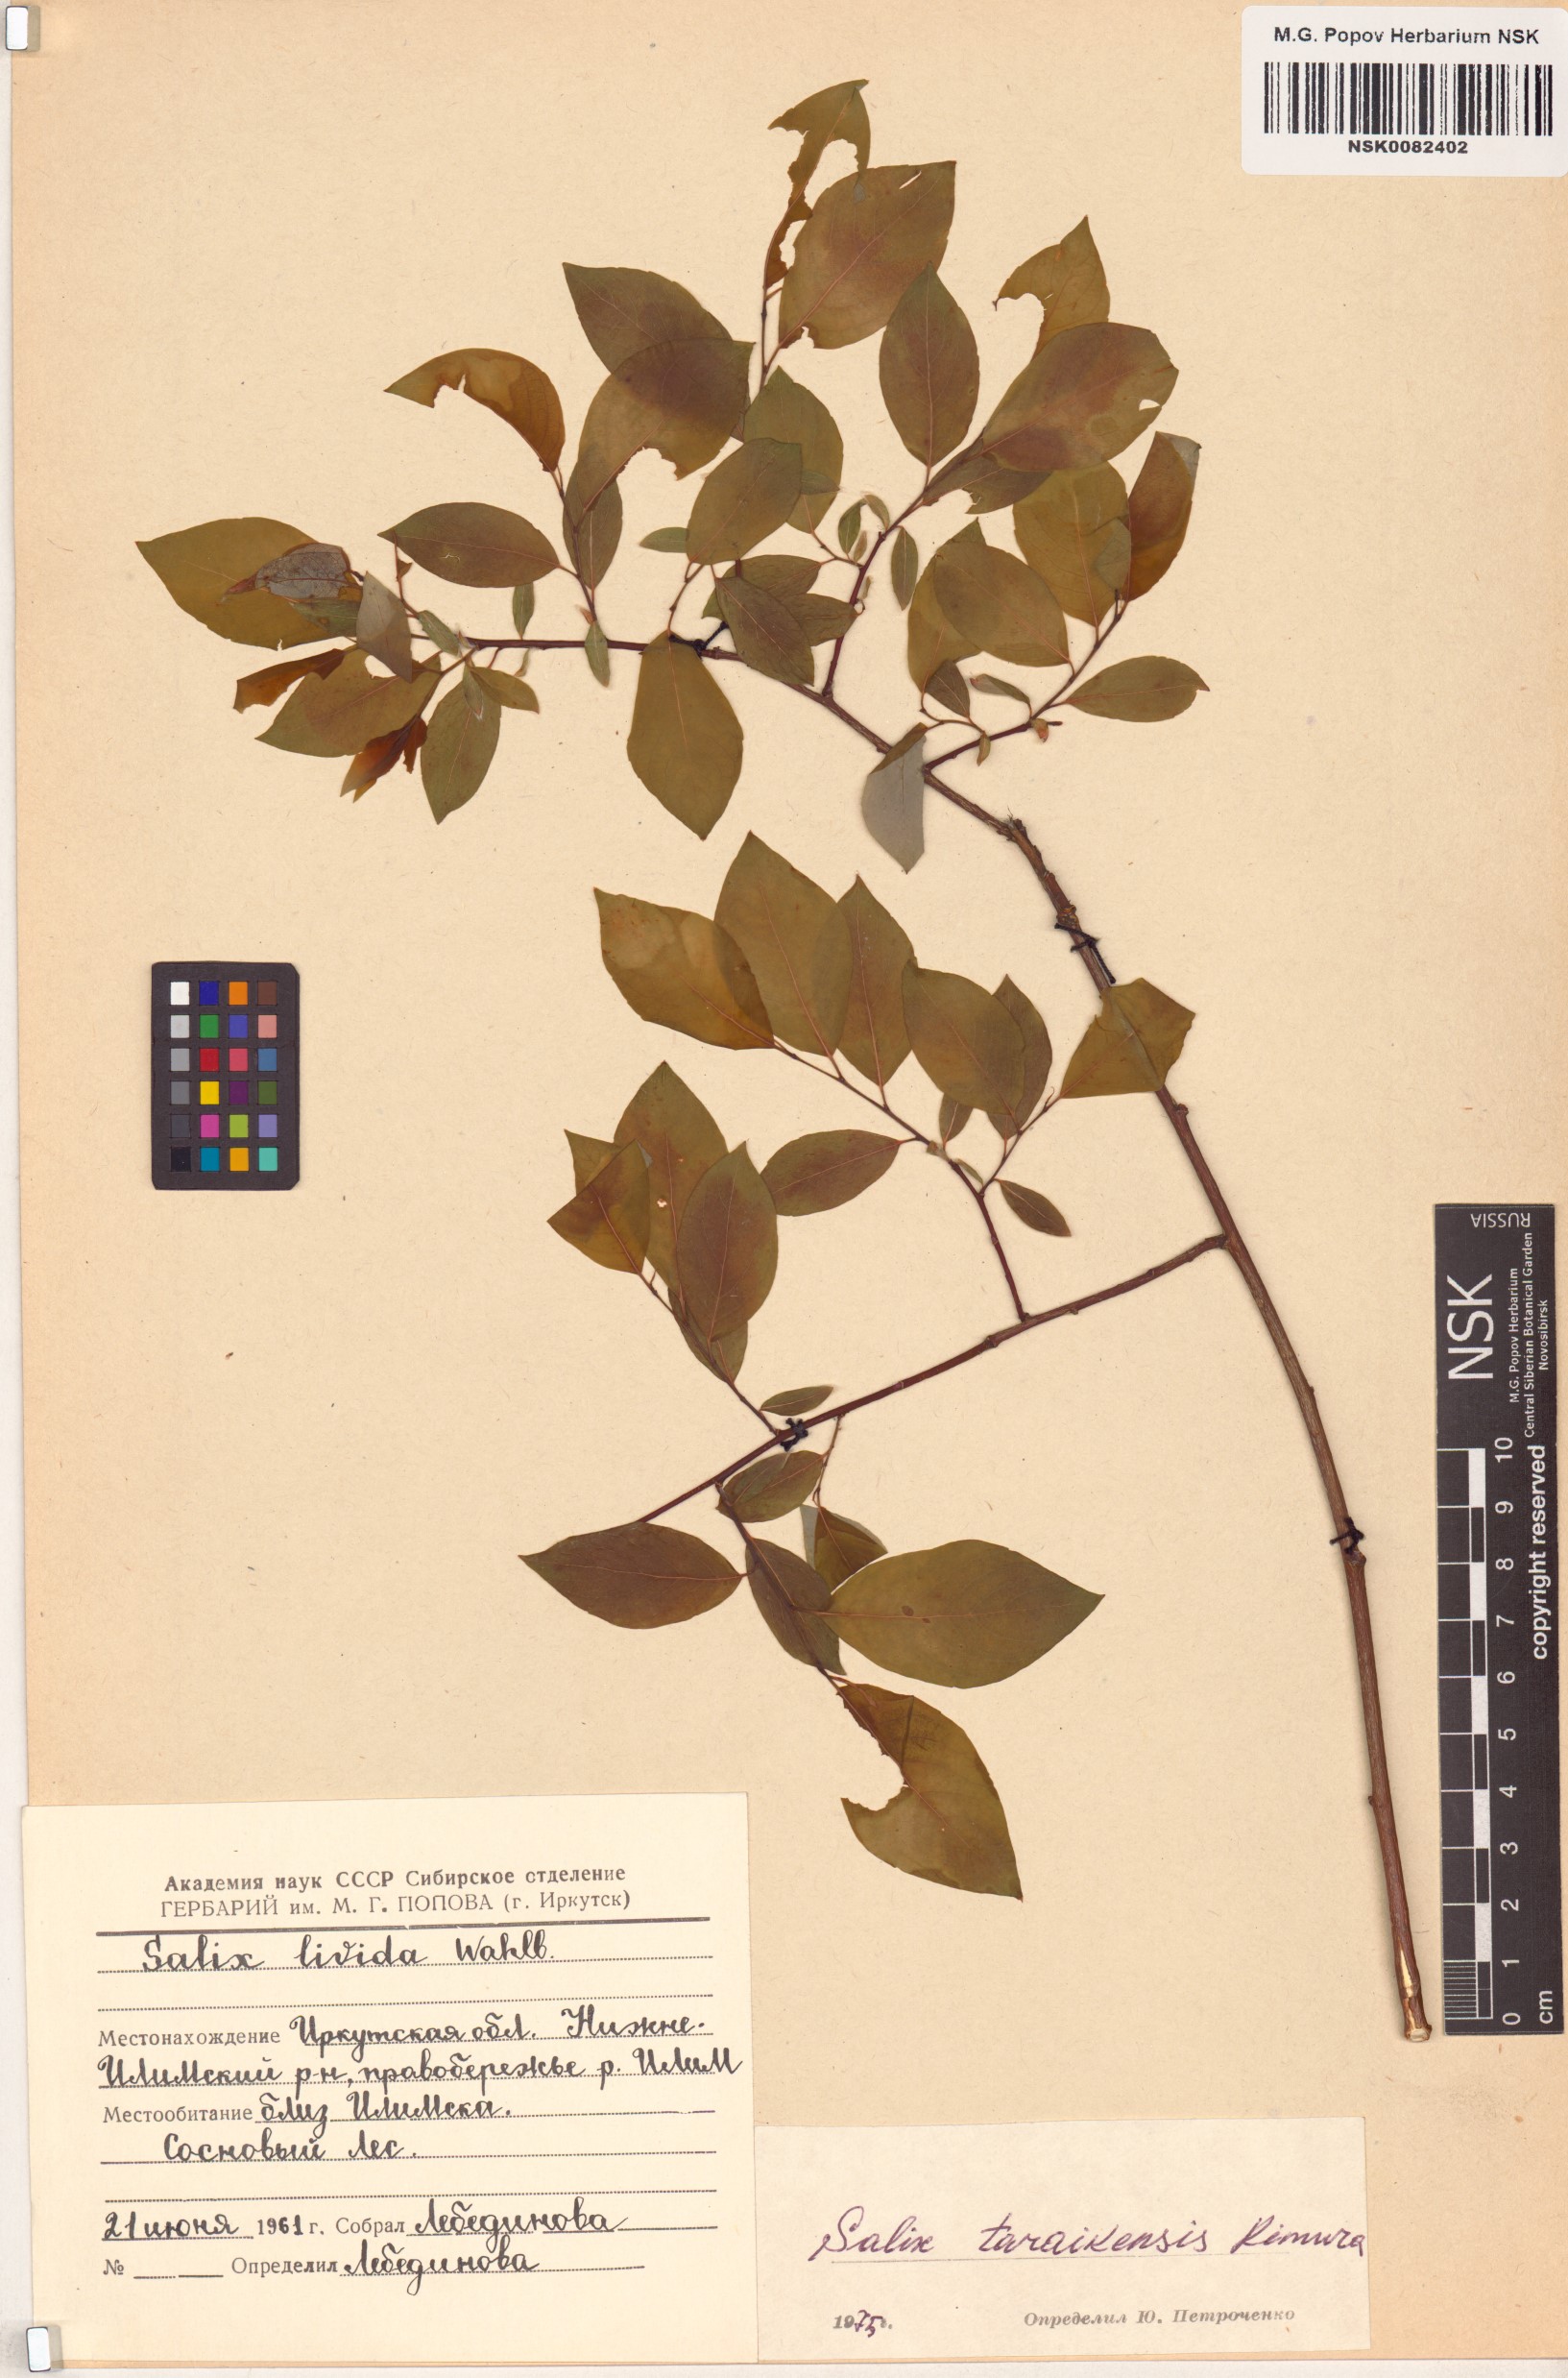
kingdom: Plantae
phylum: Tracheophyta
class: Magnoliopsida
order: Malpighiales
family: Salicaceae
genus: Salix
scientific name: Salix taraikensis
